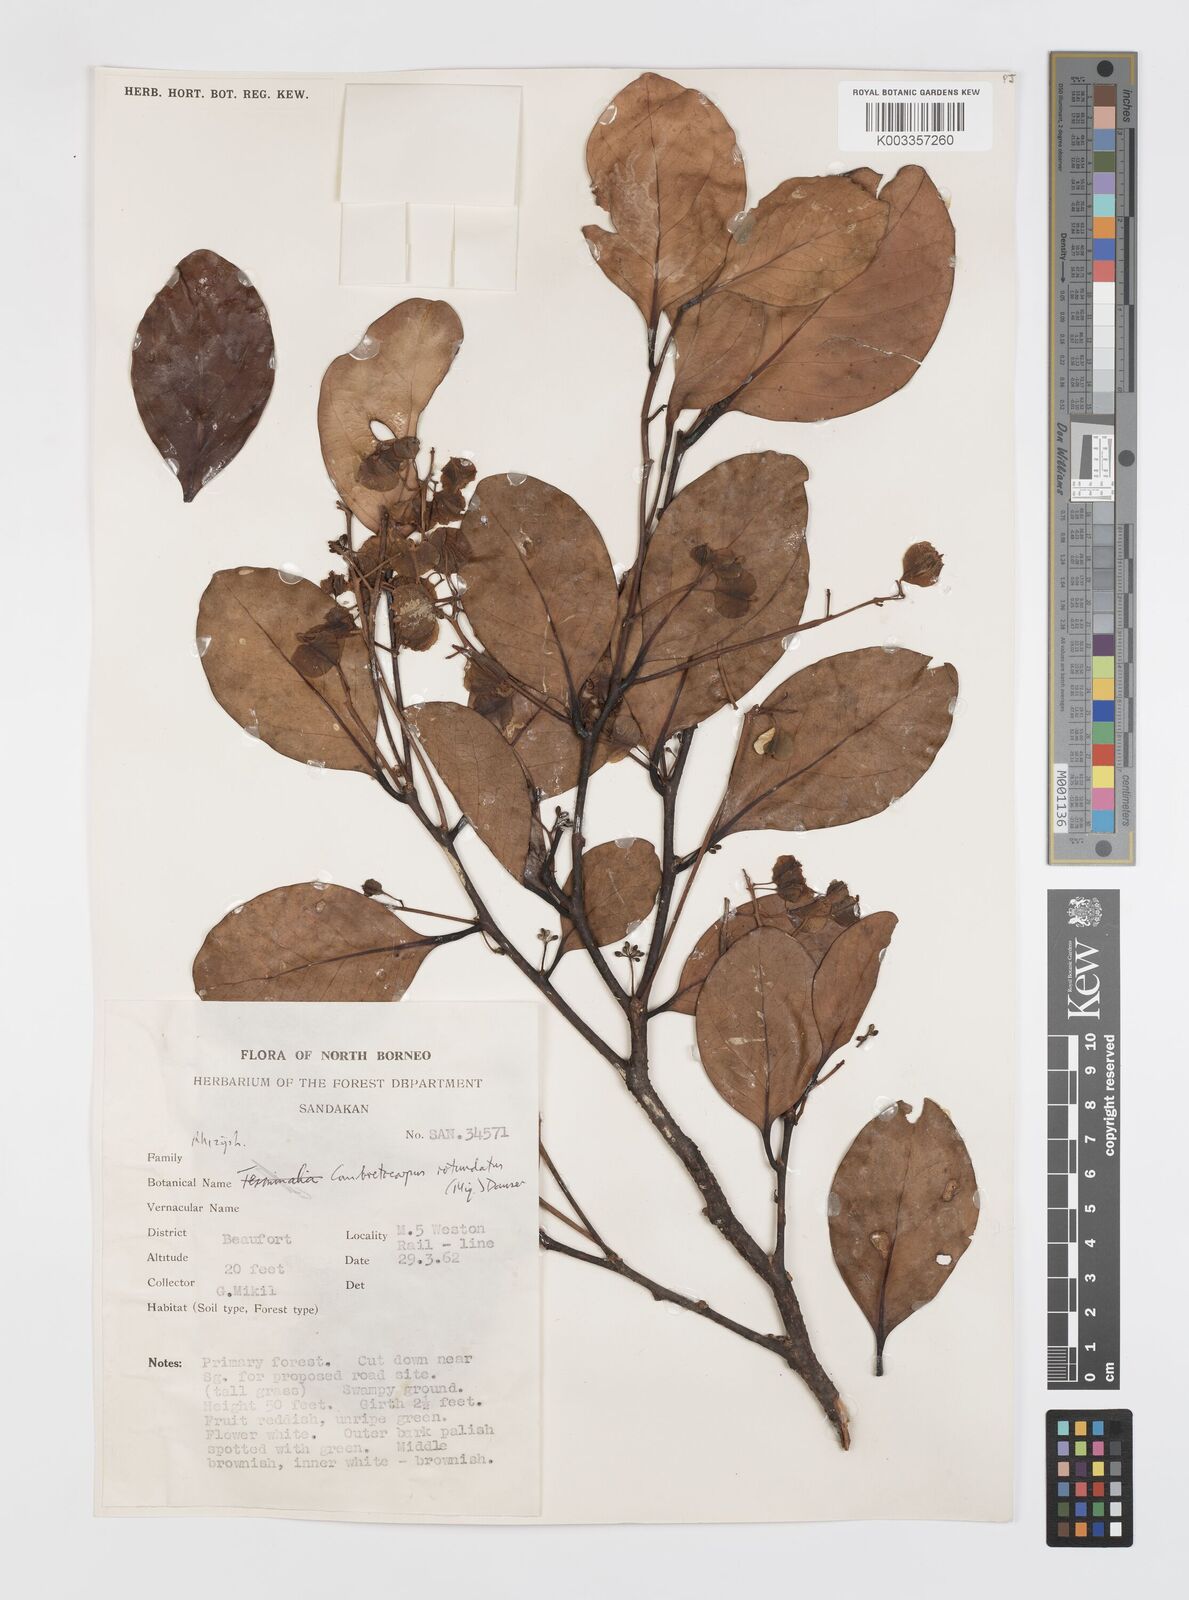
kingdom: Plantae
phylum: Tracheophyta
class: Magnoliopsida
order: Cucurbitales
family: Anisophylleaceae
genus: Combretocarpus
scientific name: Combretocarpus rotundatus
